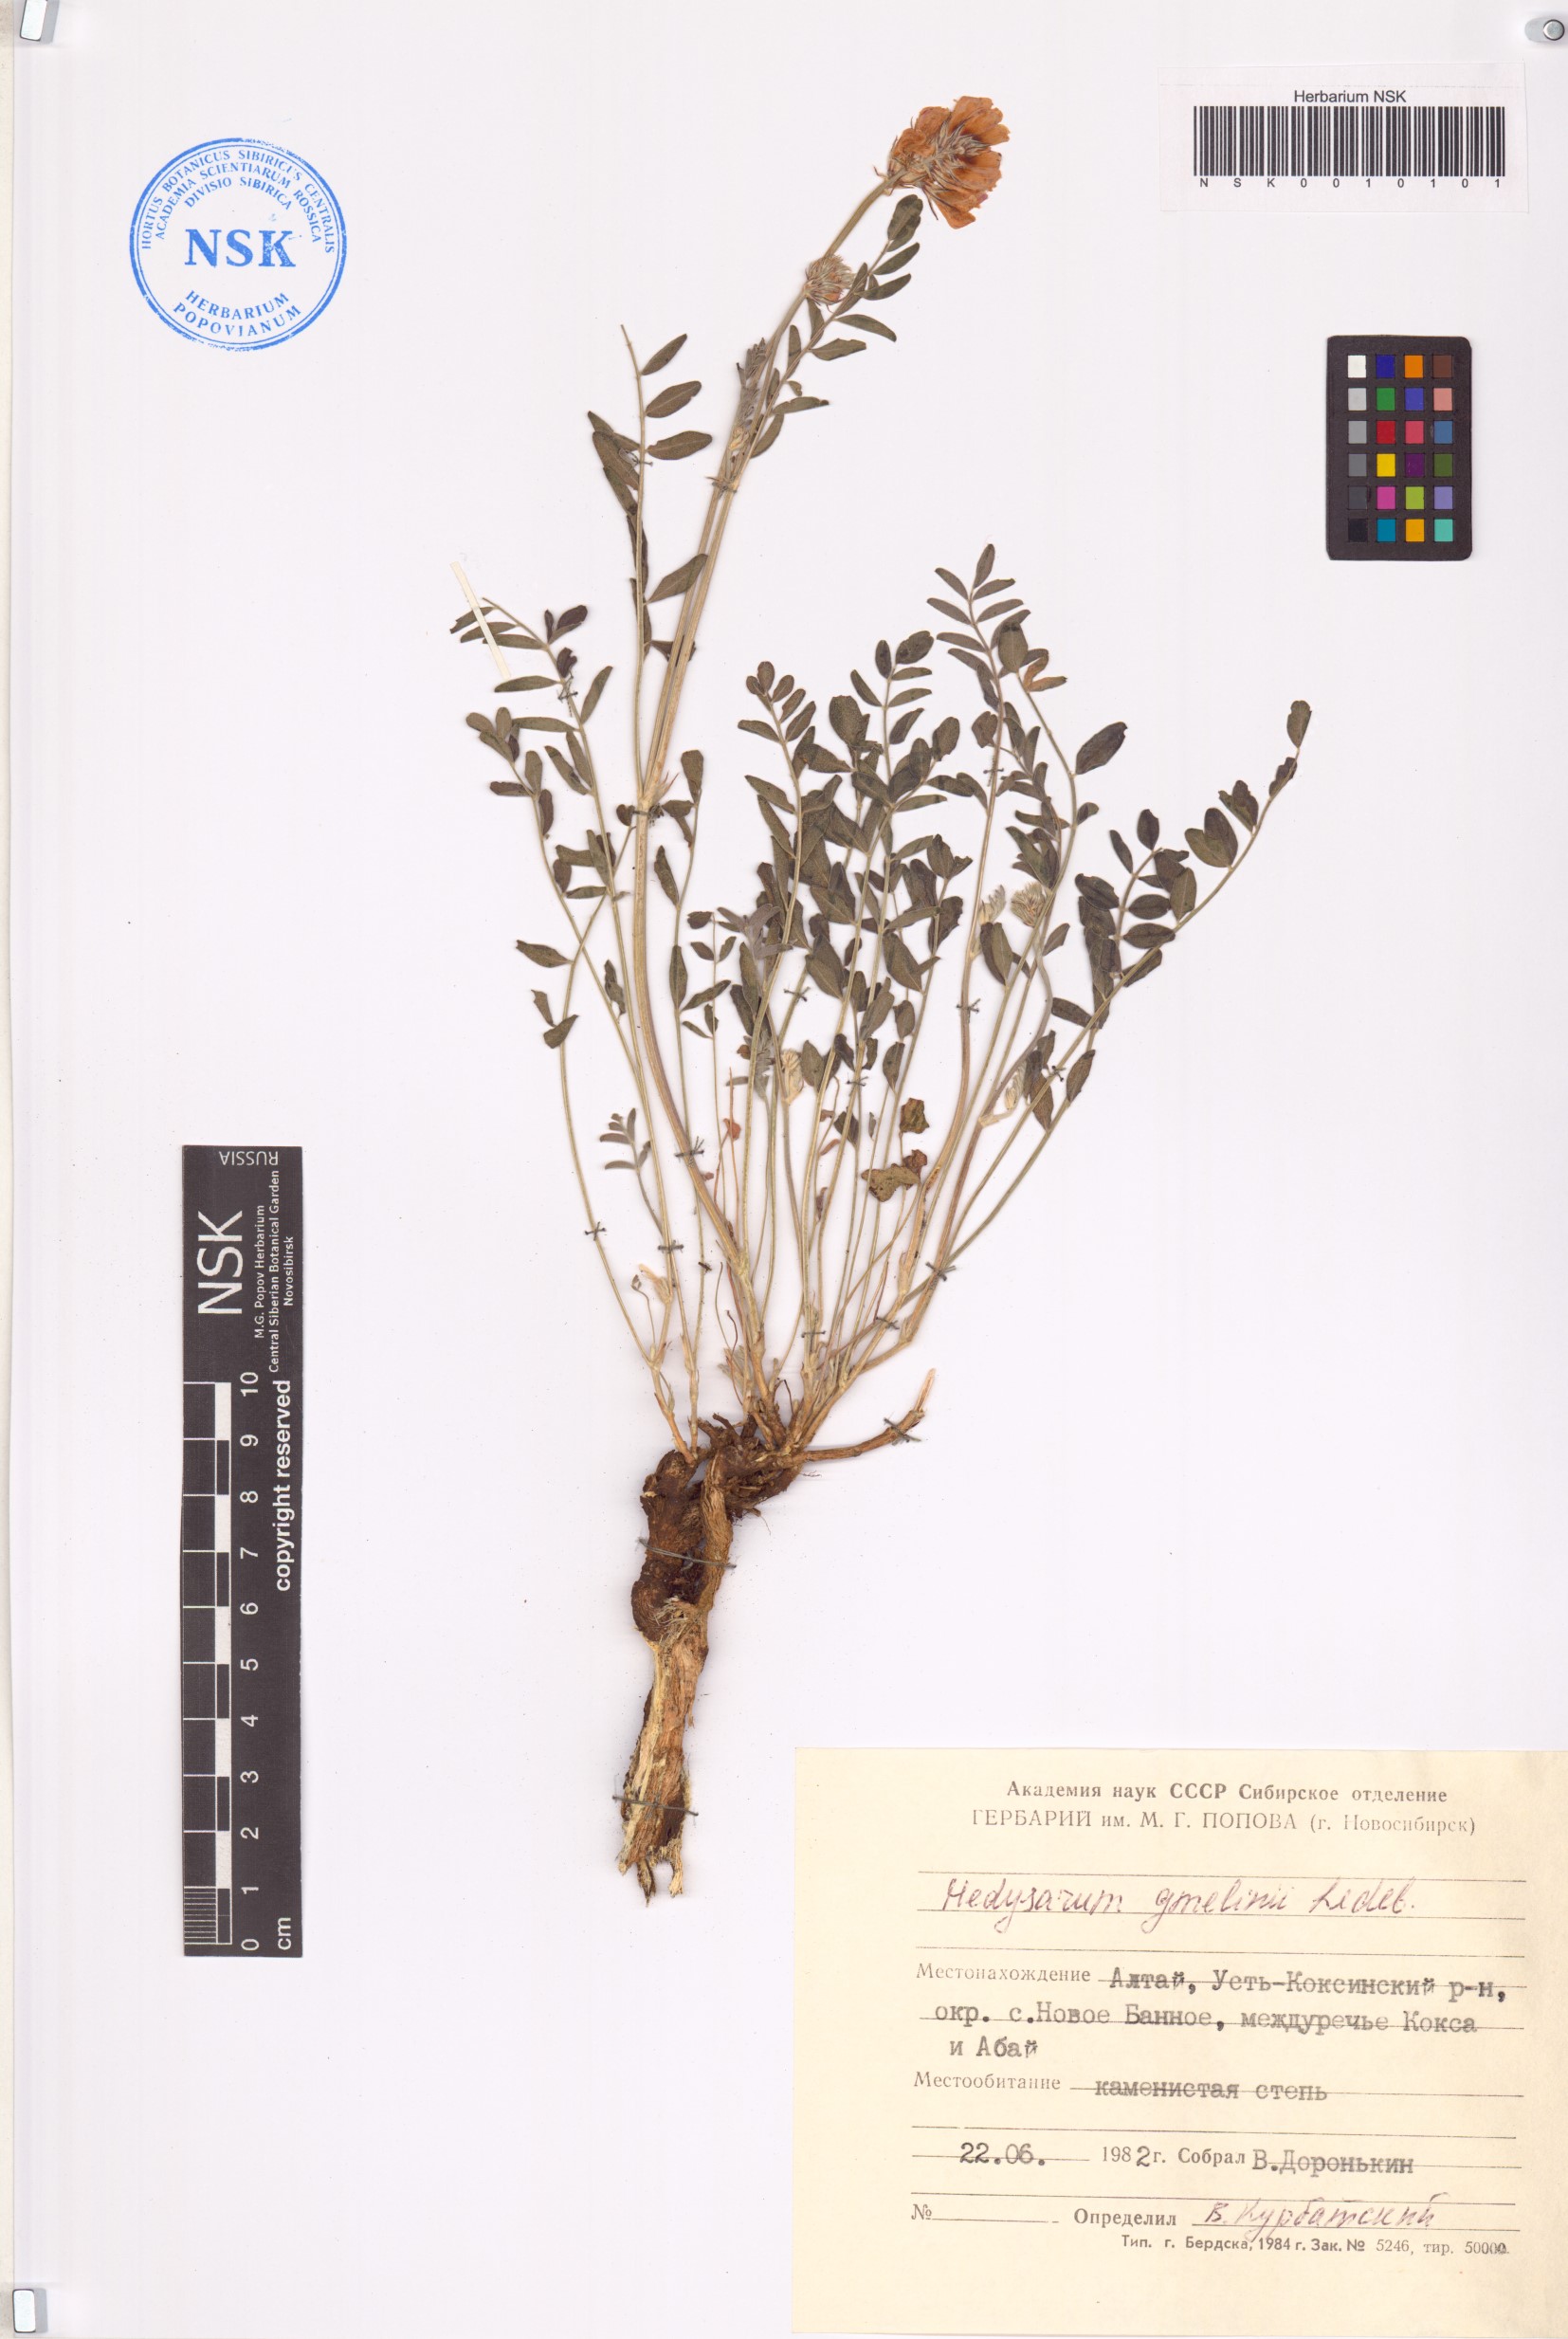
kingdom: Plantae
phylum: Tracheophyta
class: Magnoliopsida
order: Fabales
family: Fabaceae
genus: Hedysarum
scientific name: Hedysarum gmelinii
